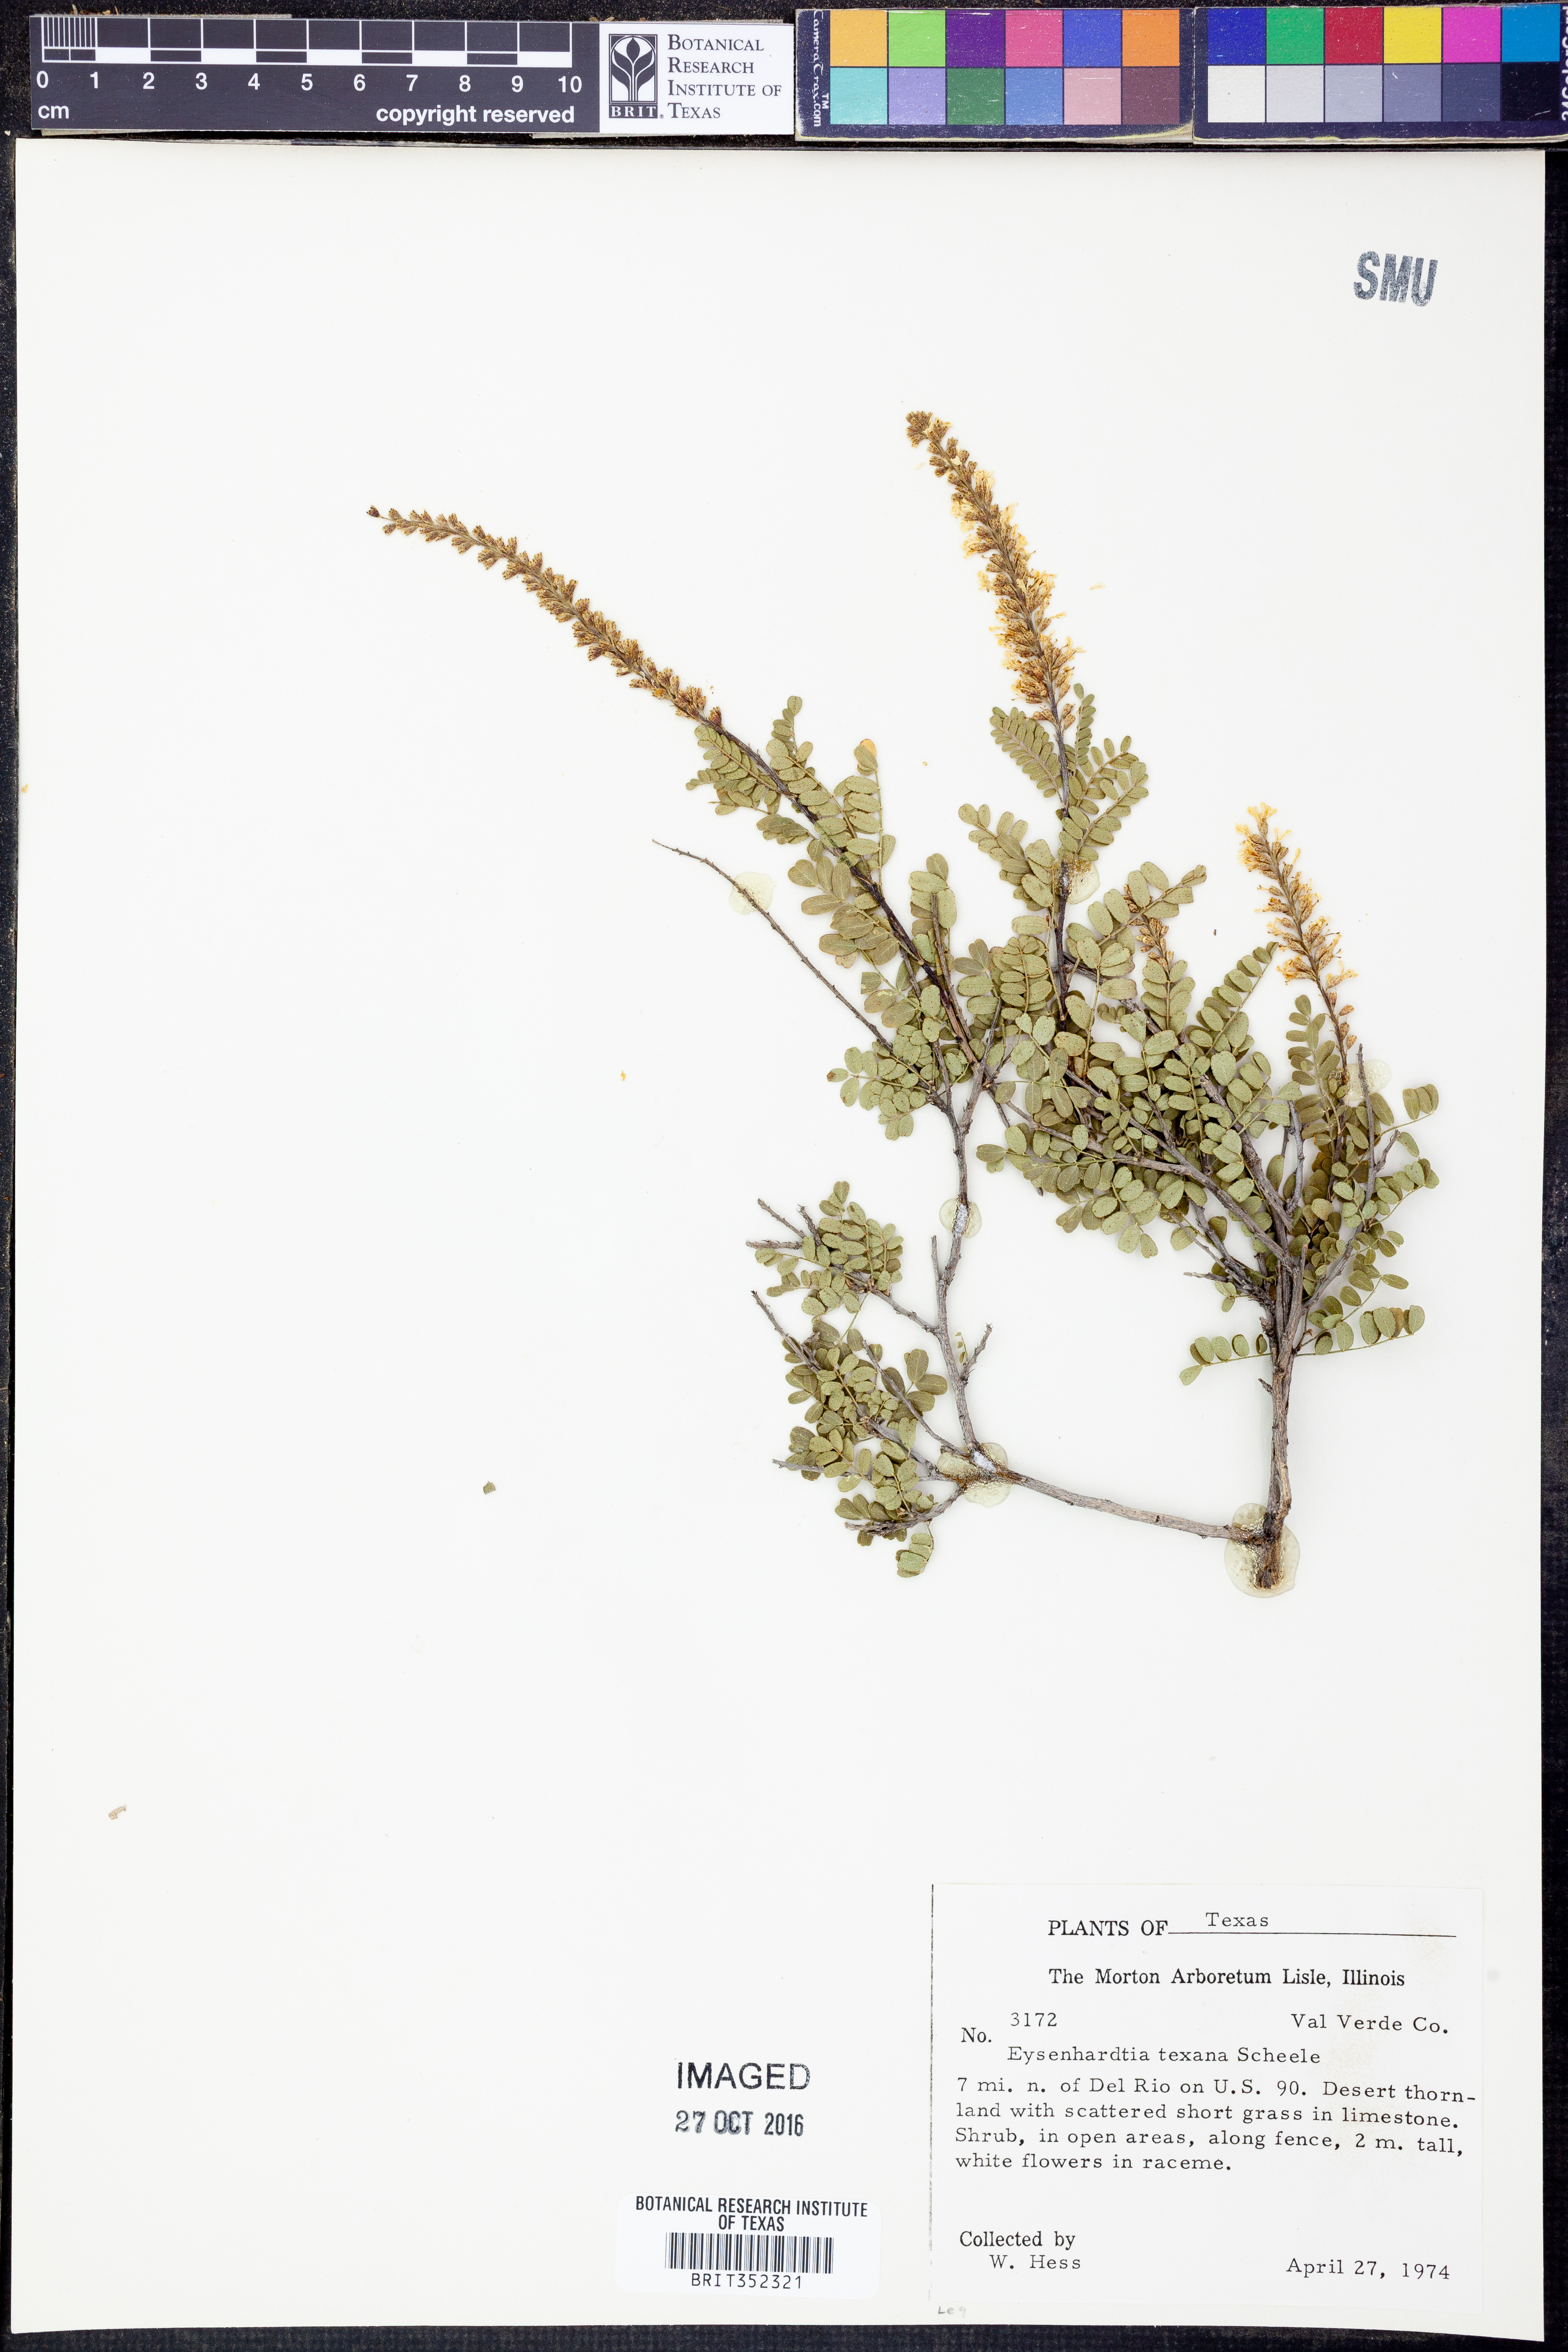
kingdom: Plantae
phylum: Tracheophyta
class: Magnoliopsida
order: Fabales
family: Fabaceae
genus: Eysenhardtia
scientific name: Eysenhardtia texana
